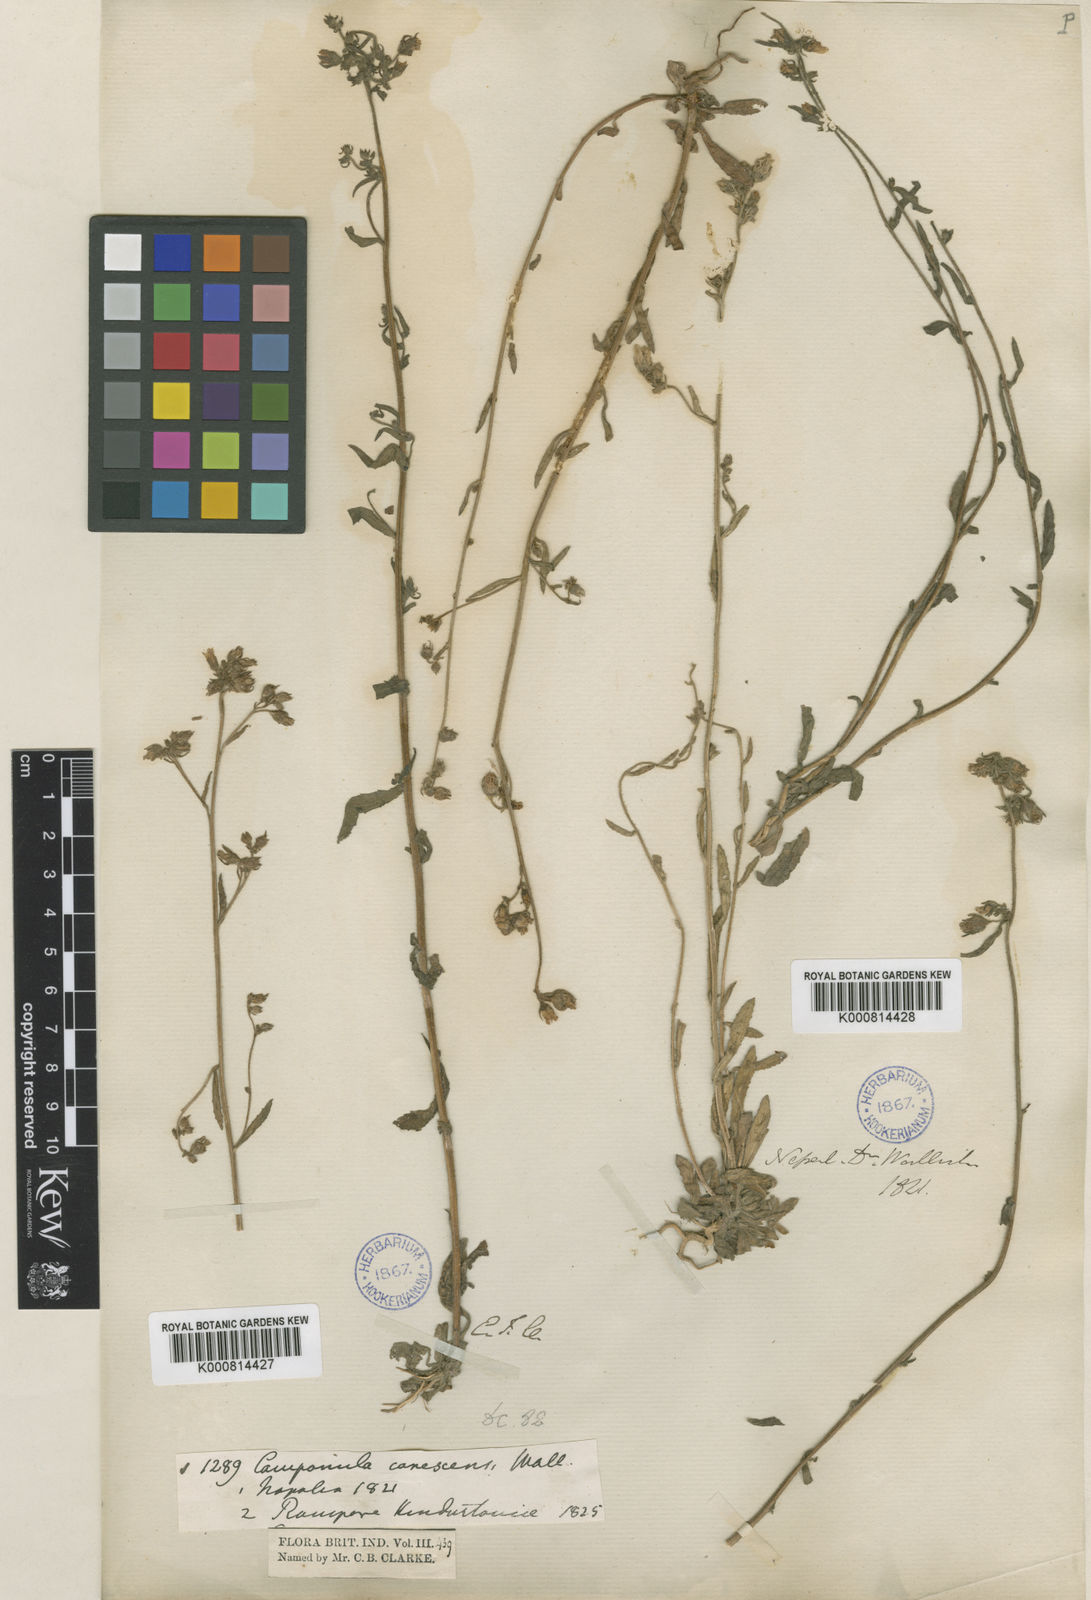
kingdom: Plantae
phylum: Tracheophyta
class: Magnoliopsida
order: Asterales
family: Campanulaceae
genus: Campanula
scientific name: Campanula
